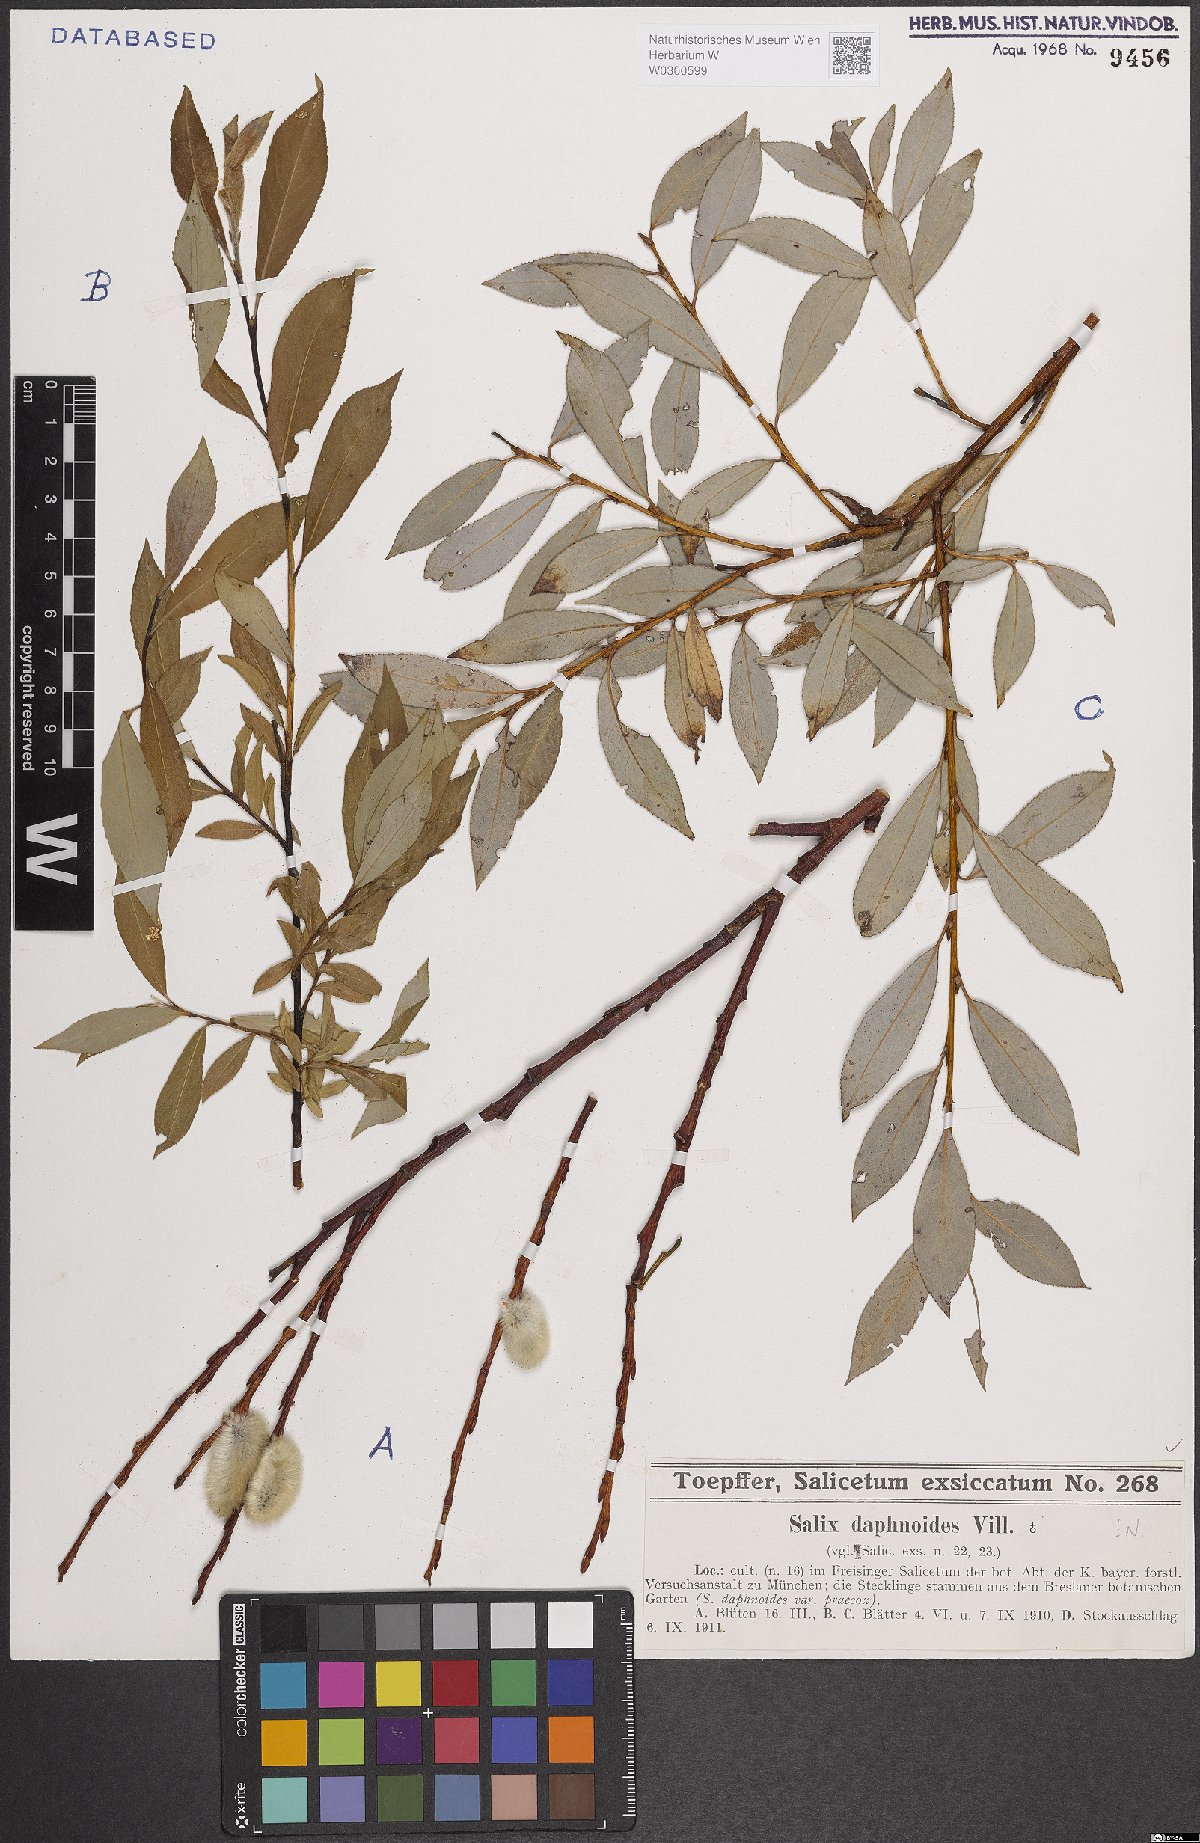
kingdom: Plantae
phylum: Tracheophyta
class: Magnoliopsida
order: Malpighiales
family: Salicaceae
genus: Salix
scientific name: Salix daphnoides
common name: European violet-willow
